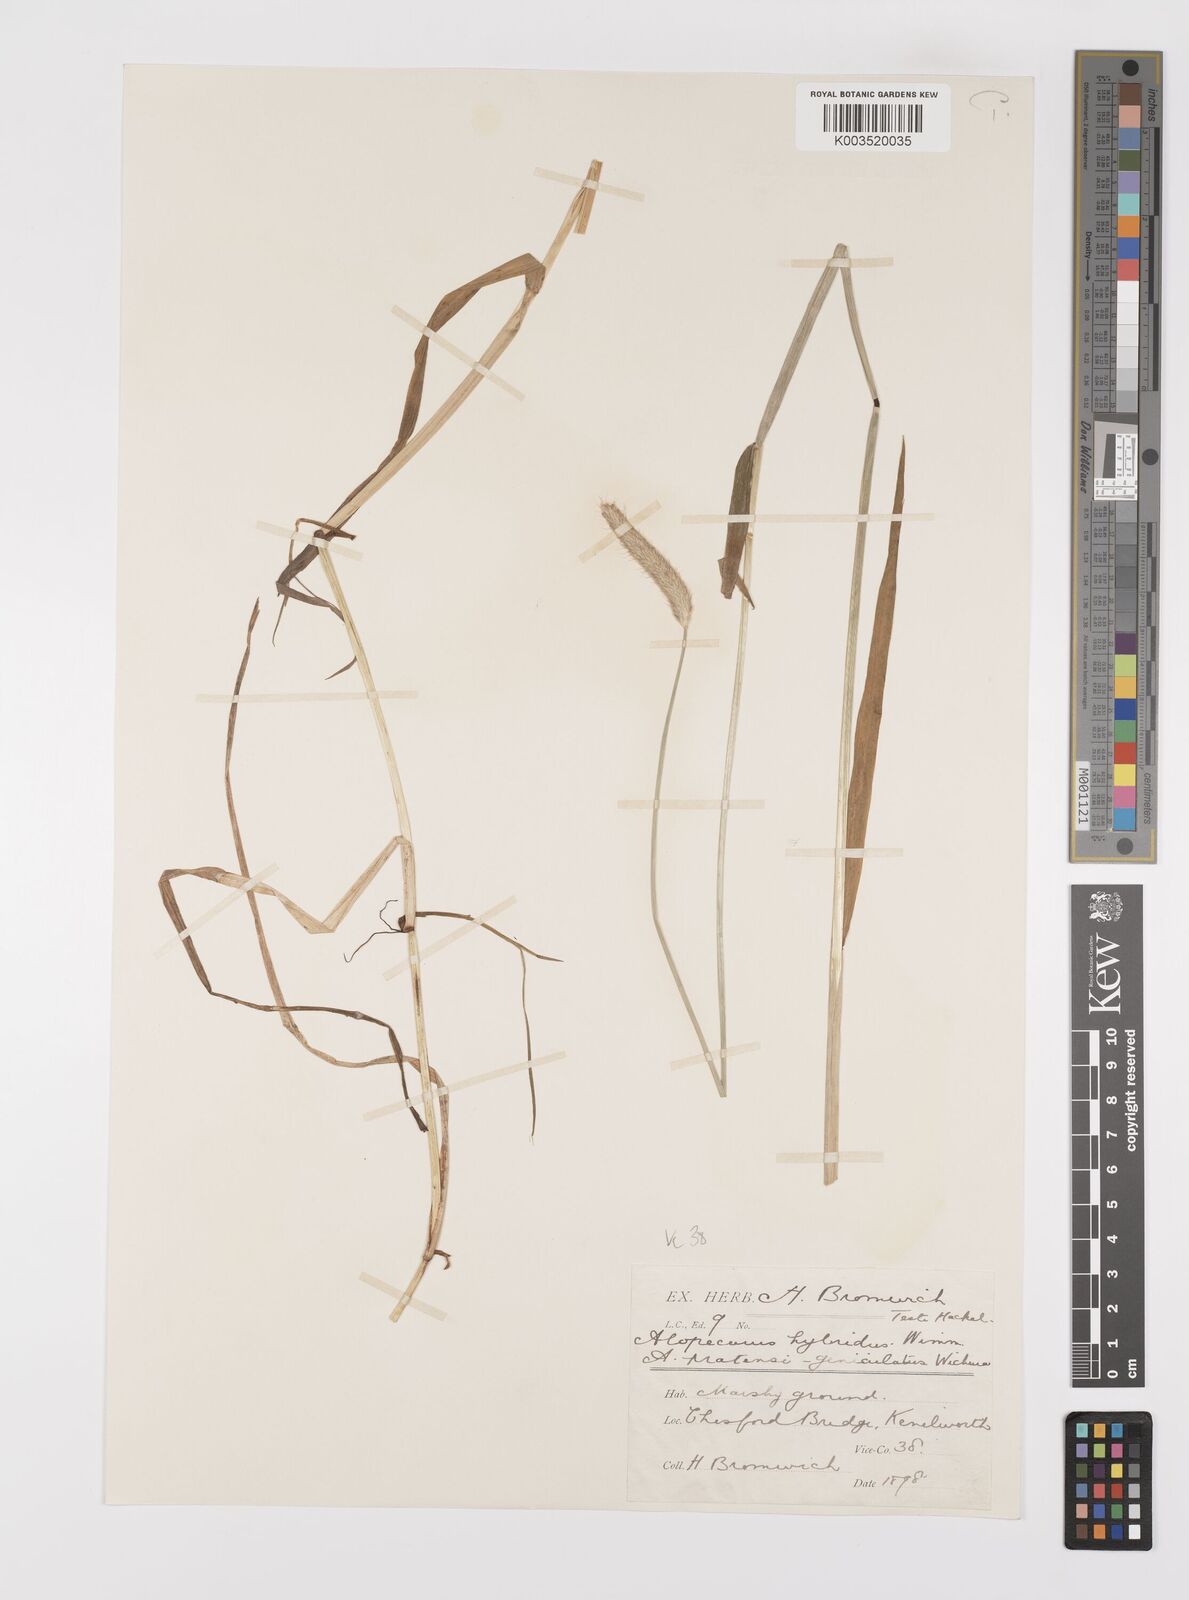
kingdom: Plantae
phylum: Tracheophyta
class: Liliopsida
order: Poales
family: Poaceae
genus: Alopecurus
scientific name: Alopecurus brachystylus
